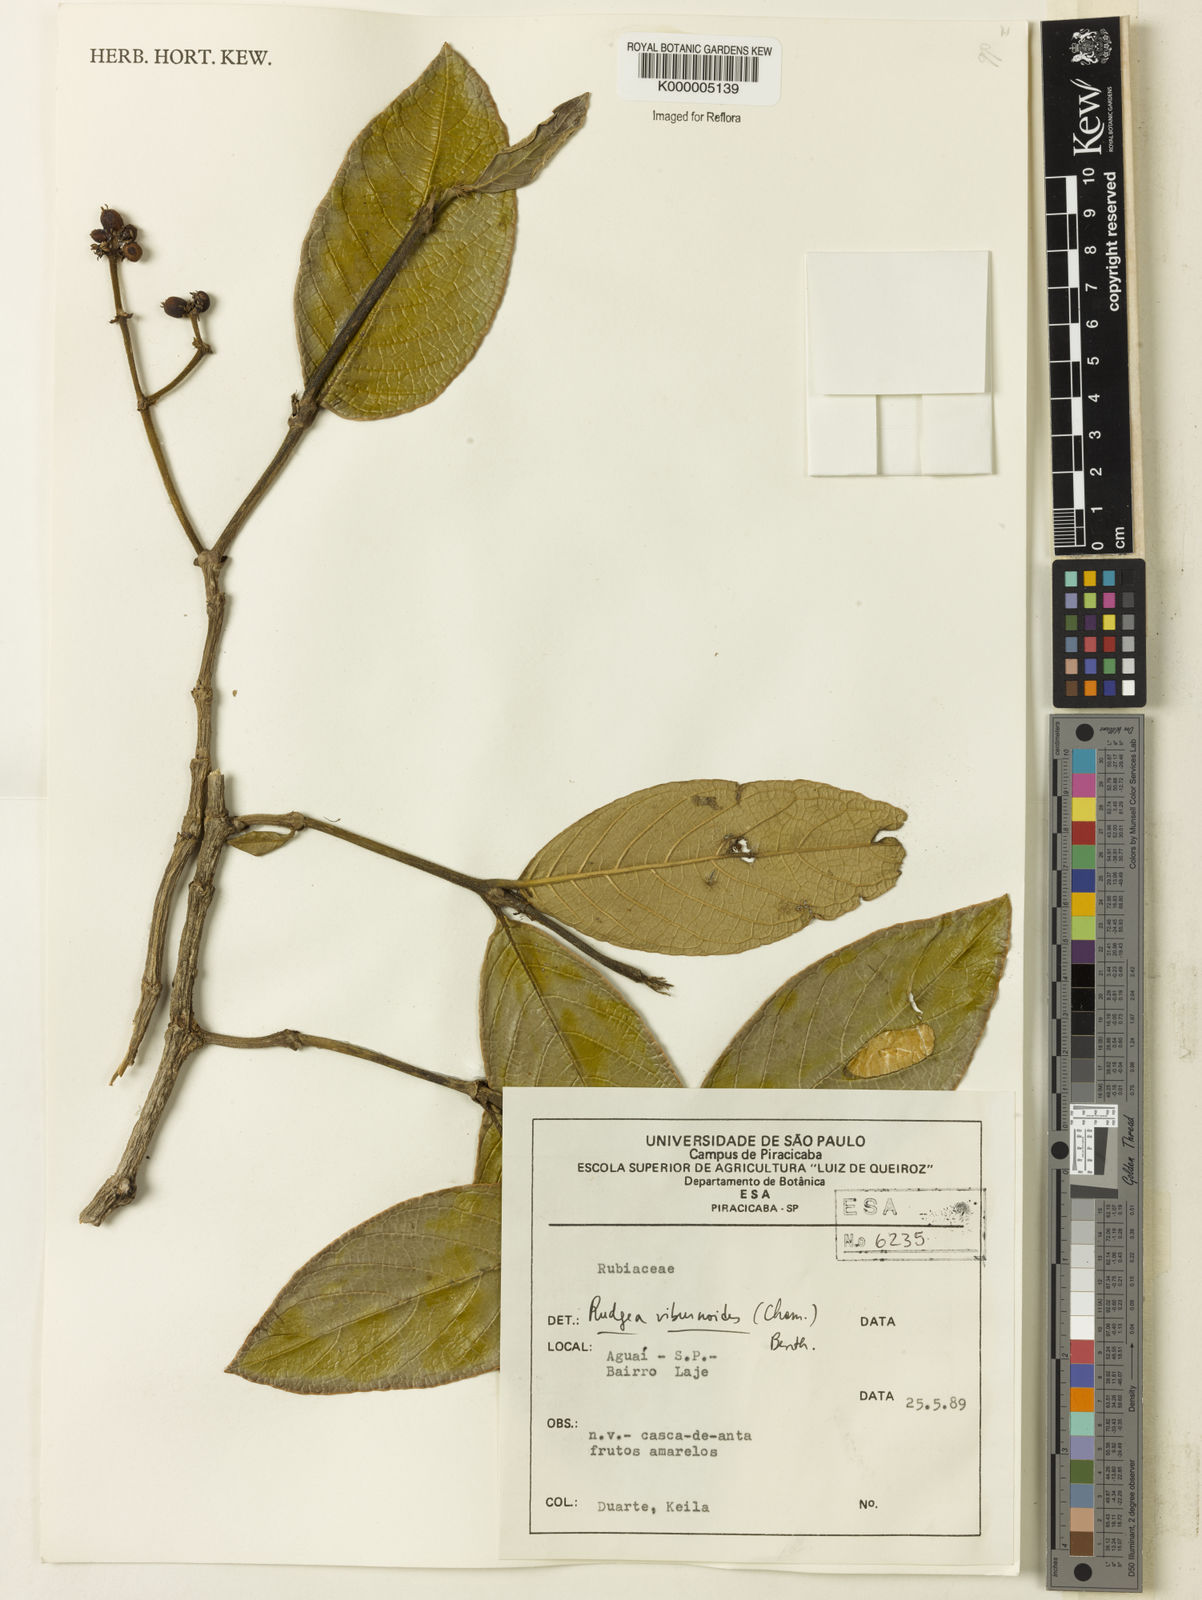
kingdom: Plantae
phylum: Tracheophyta
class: Magnoliopsida
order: Gentianales
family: Rubiaceae
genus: Rudgea
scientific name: Rudgea viburnoides
